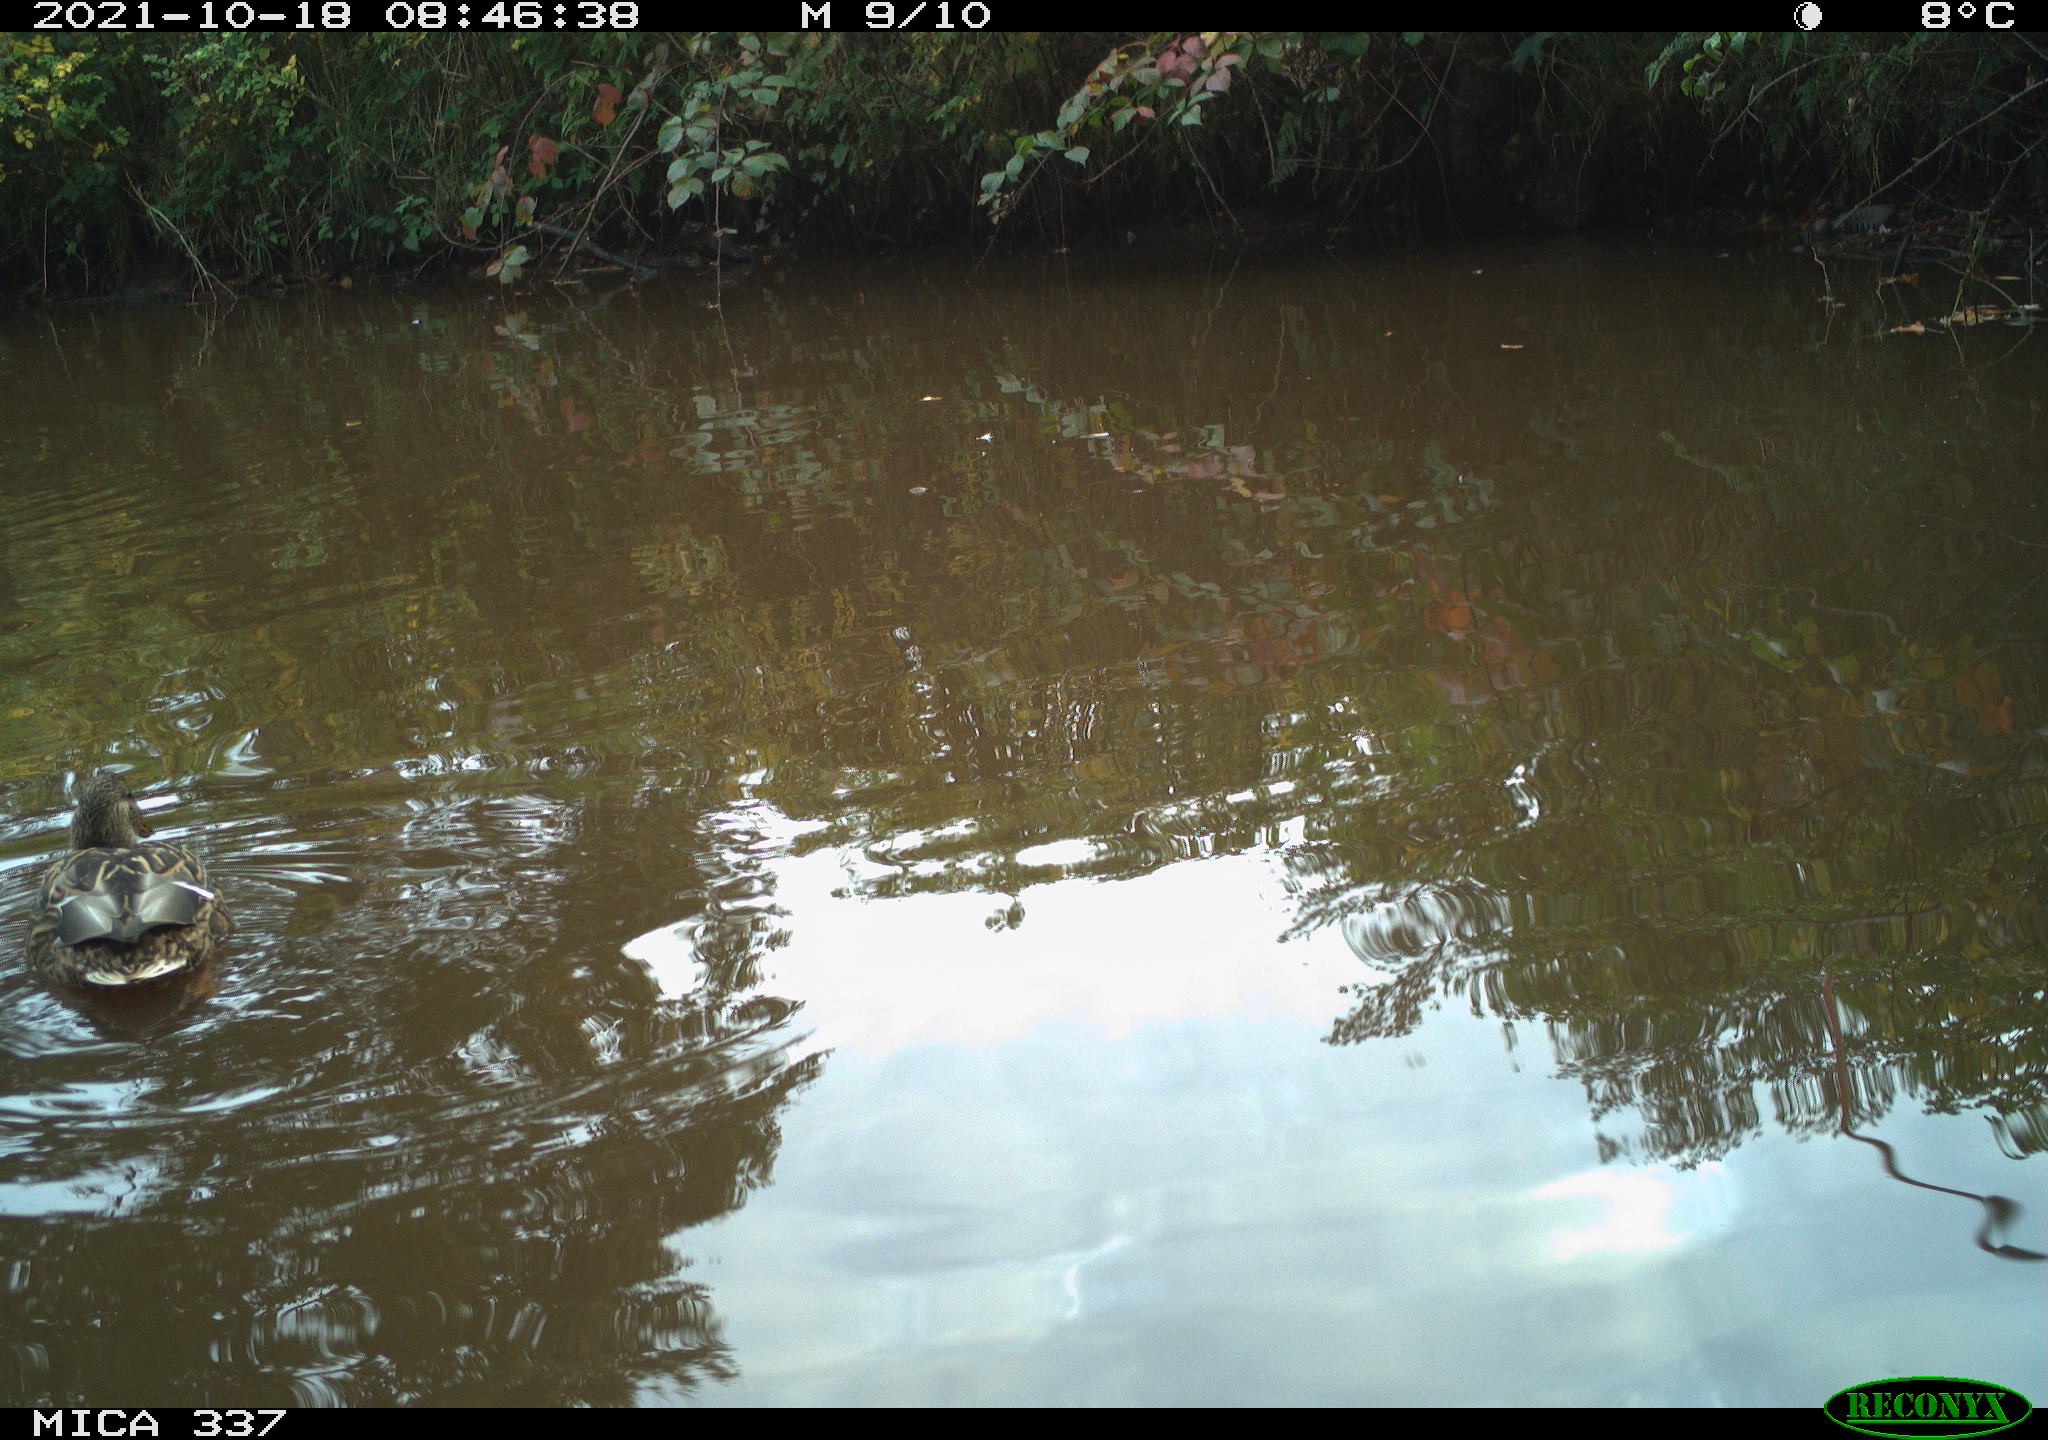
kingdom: Animalia
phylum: Chordata
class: Aves
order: Anseriformes
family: Anatidae
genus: Anas
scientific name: Anas platyrhynchos
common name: Mallard
